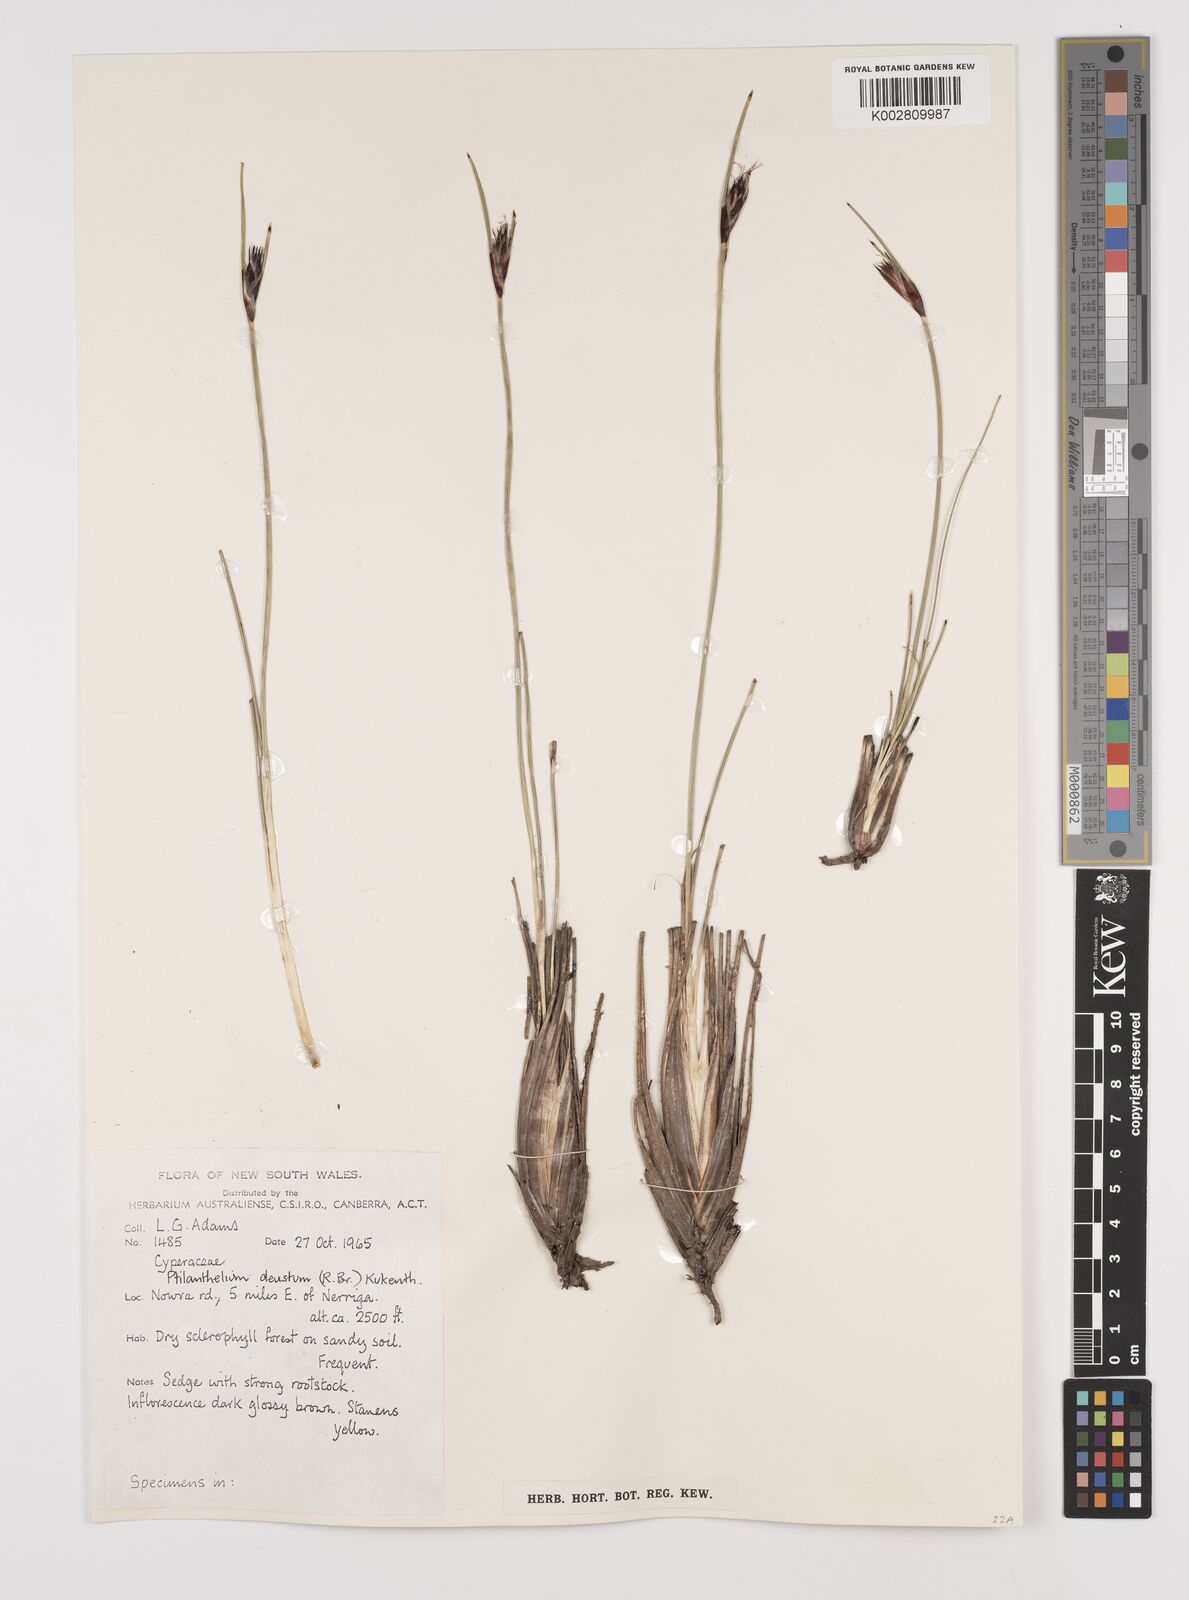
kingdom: Plantae
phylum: Tracheophyta
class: Liliopsida
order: Poales
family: Cyperaceae
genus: Ptilothrix
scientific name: Ptilothrix deusta
